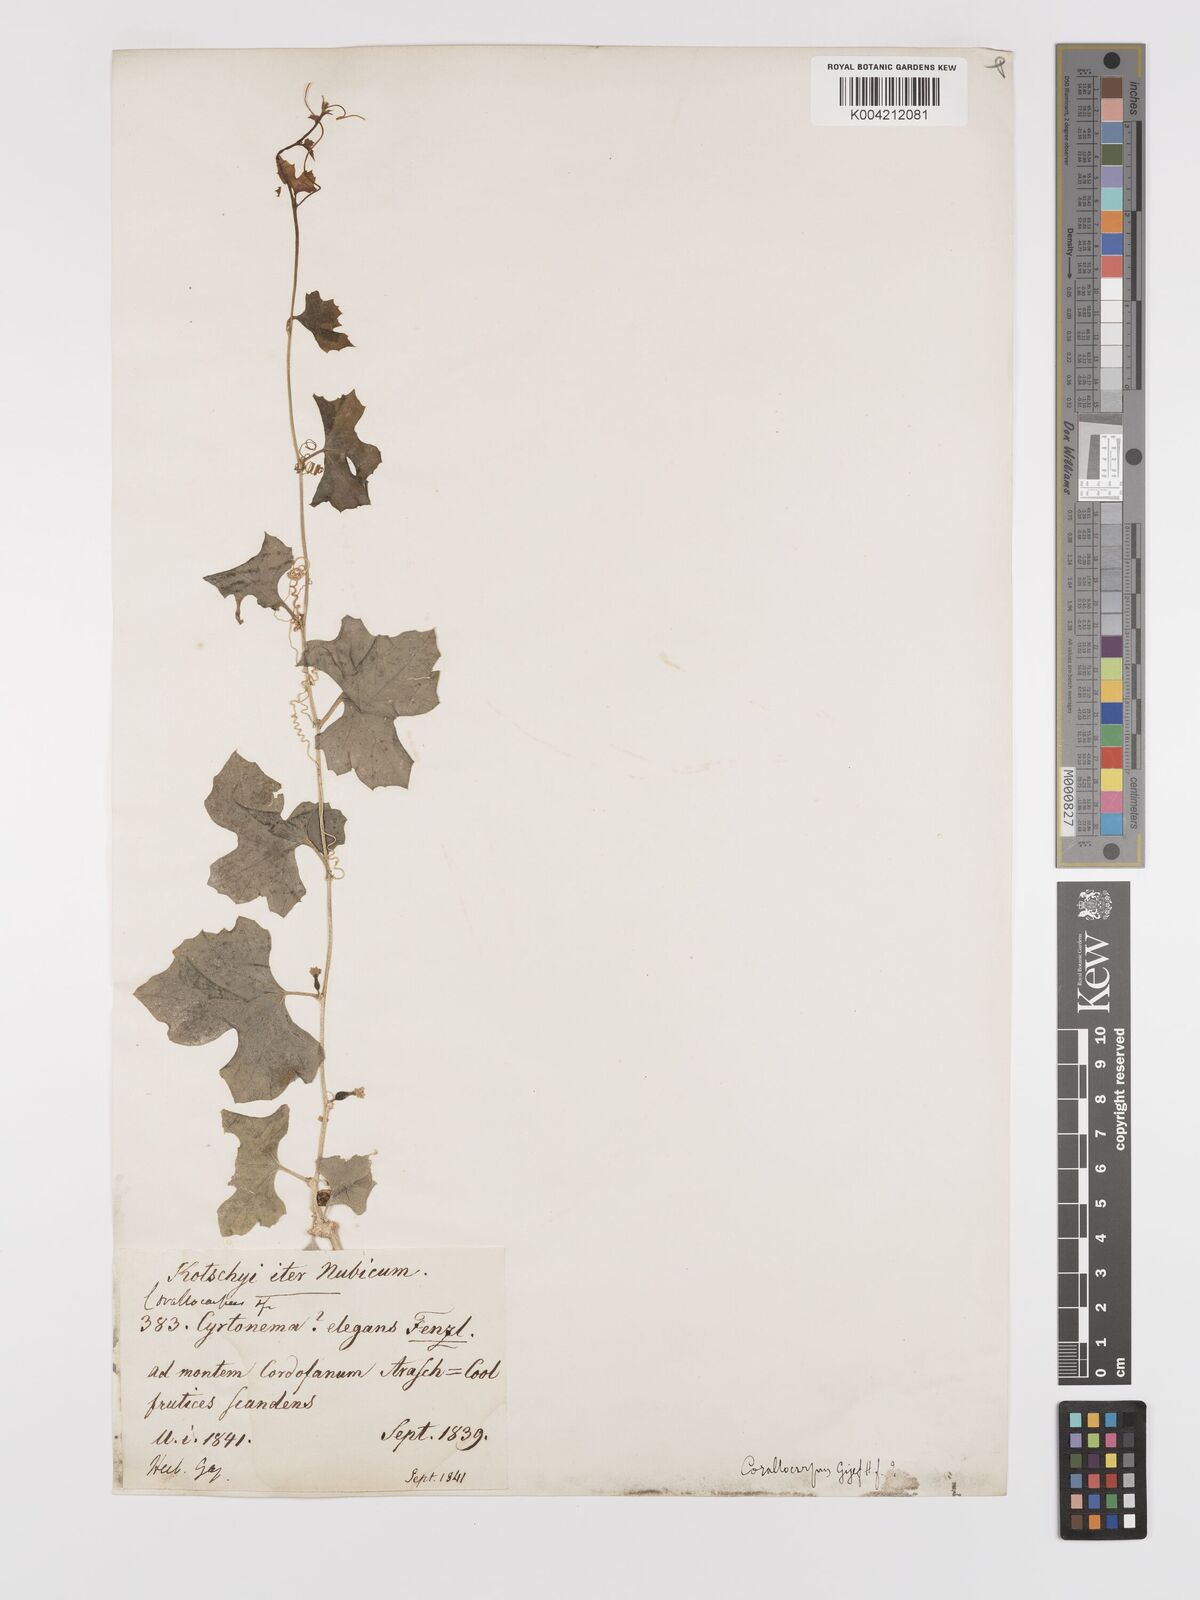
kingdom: Plantae
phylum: Tracheophyta
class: Magnoliopsida
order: Cucurbitales
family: Cucurbitaceae
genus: Kedrostis
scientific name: Kedrostis gijef
